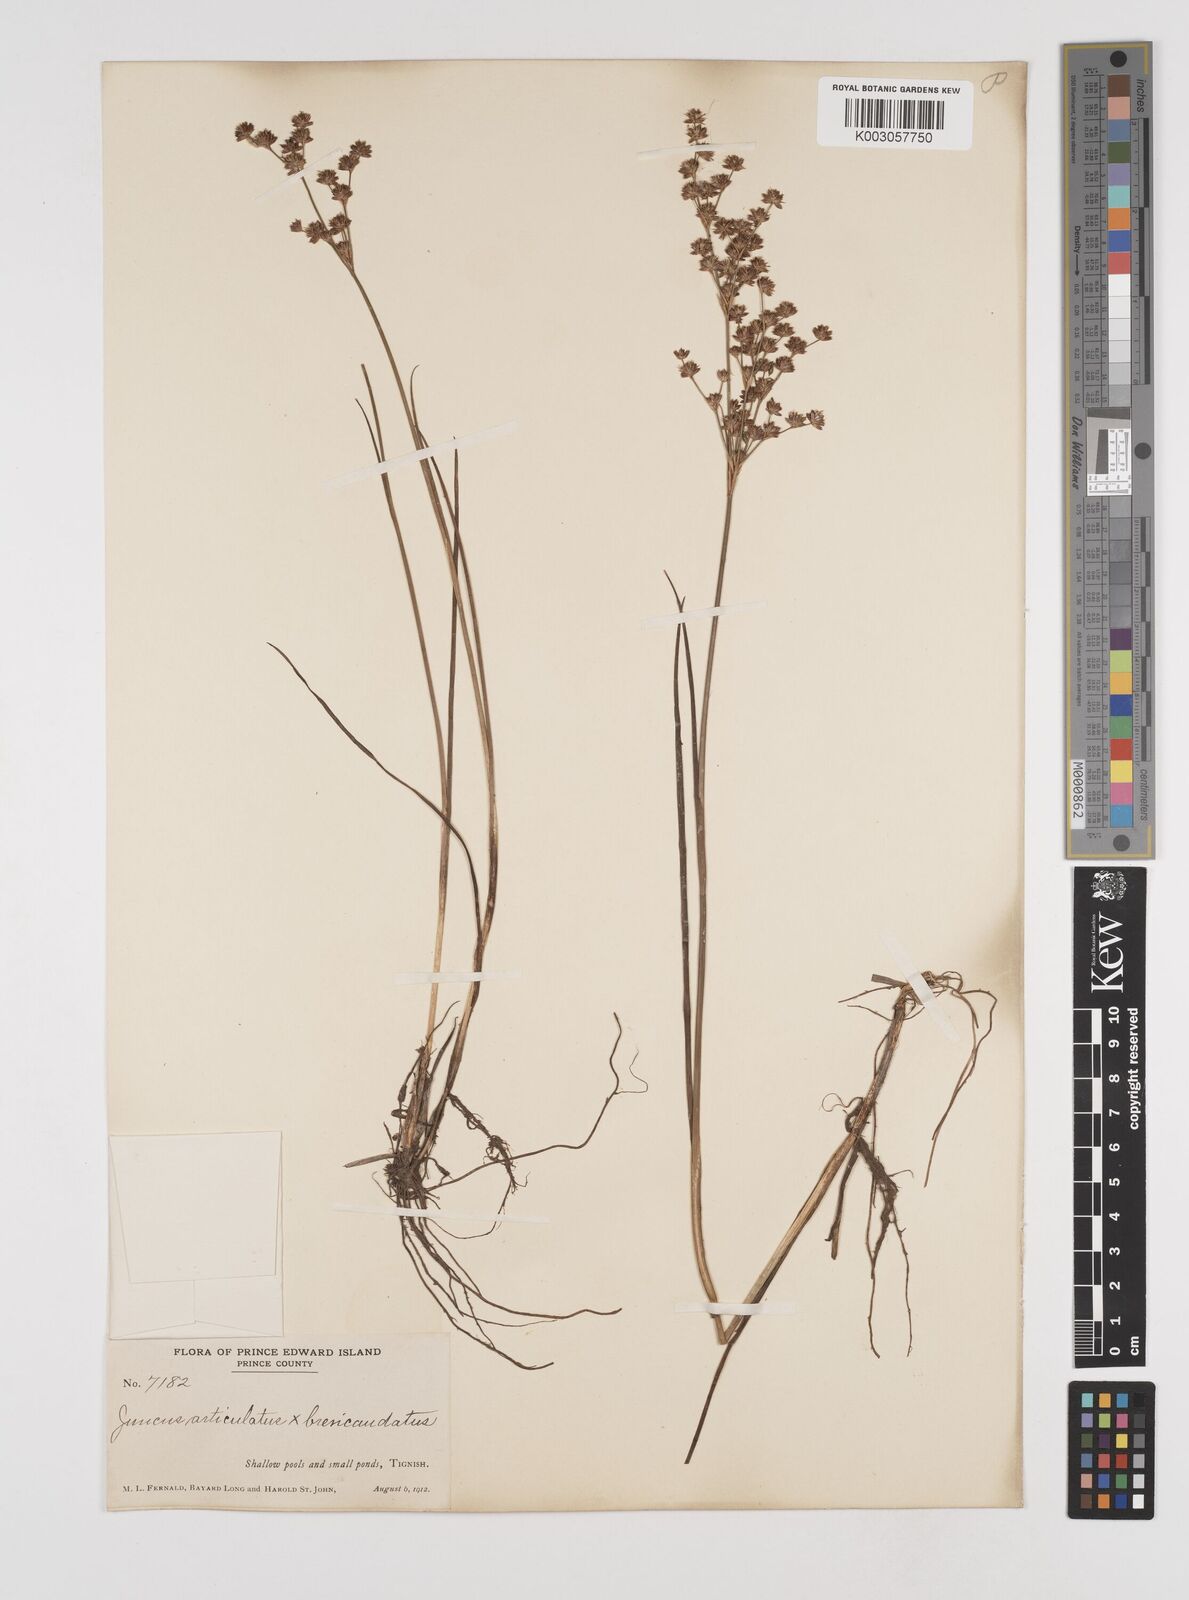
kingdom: Plantae
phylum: Tracheophyta
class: Liliopsida
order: Poales
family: Juncaceae
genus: Juncus
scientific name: Juncus articulatus
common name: Jointed rush
